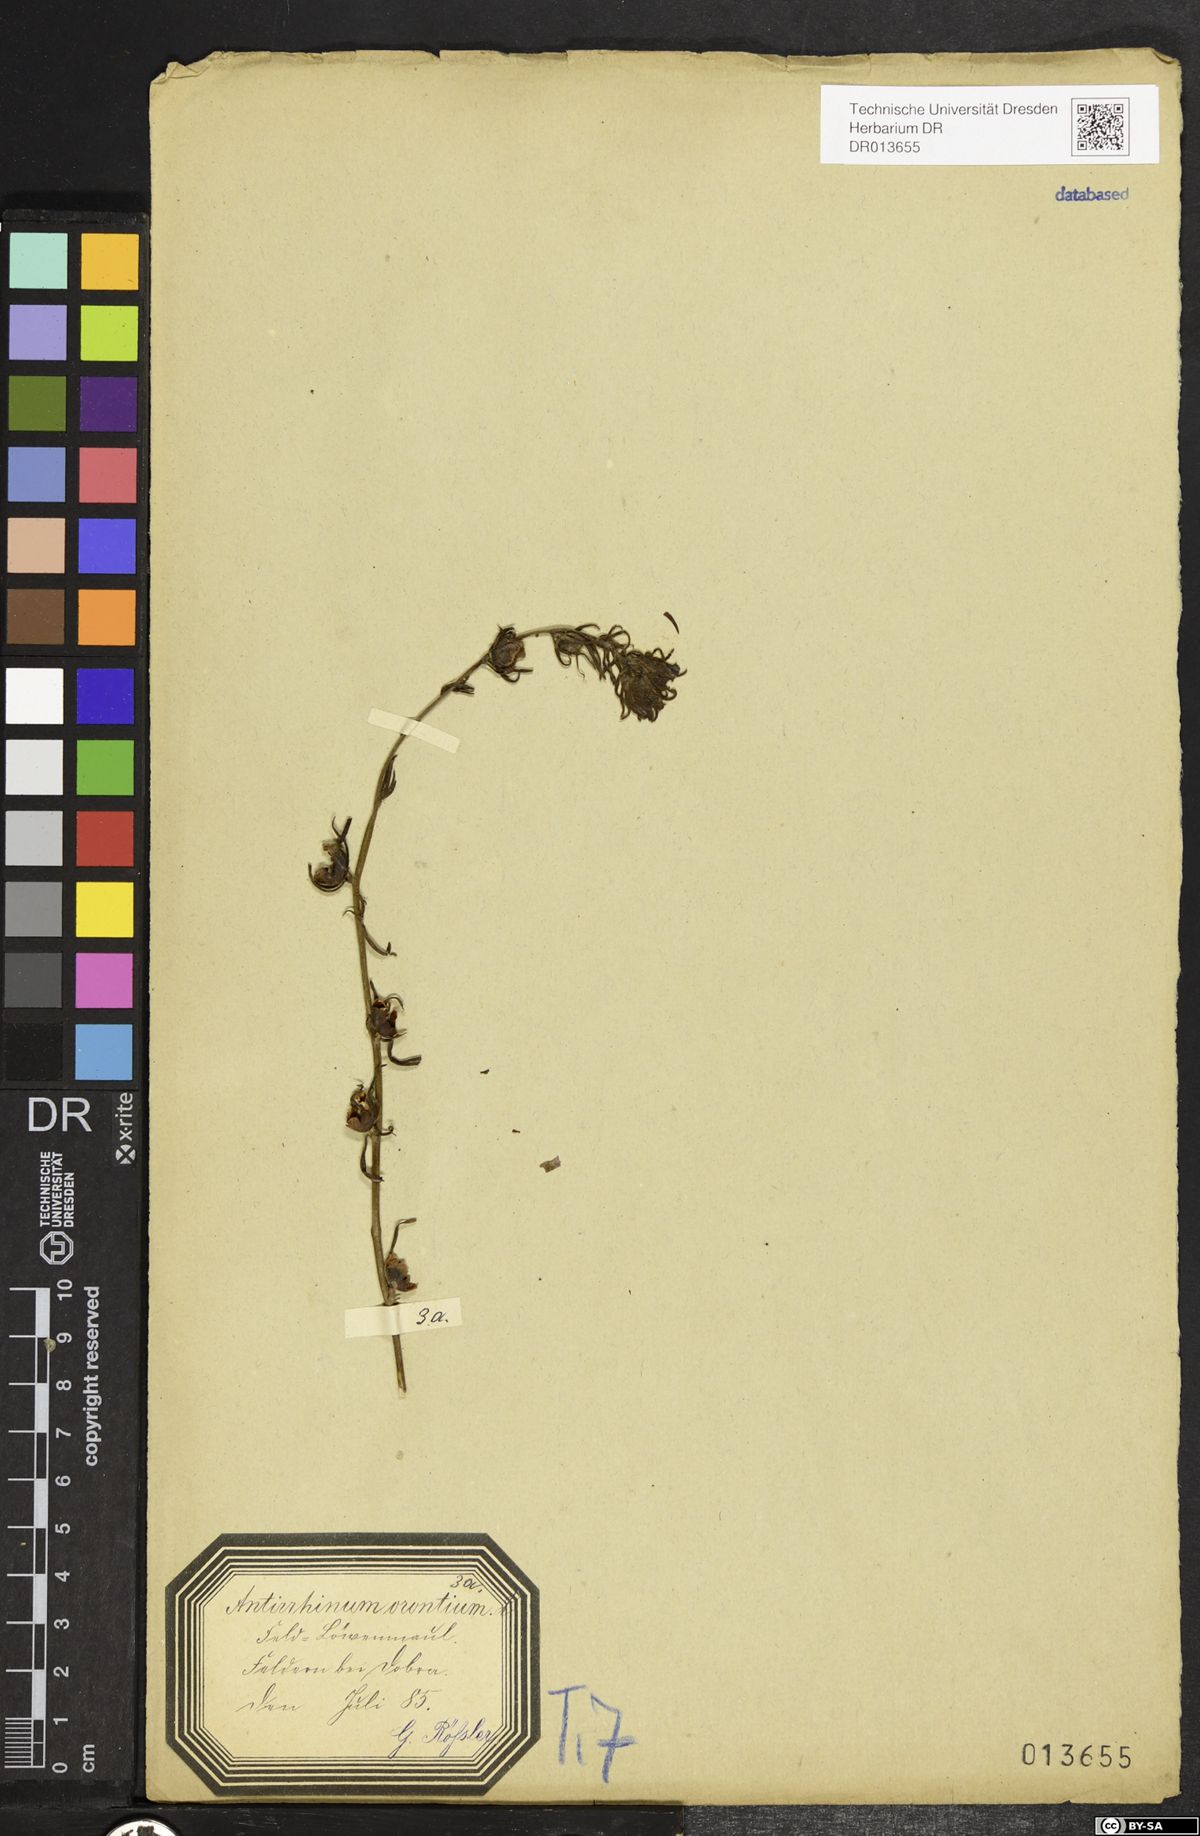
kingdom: Plantae
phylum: Tracheophyta
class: Magnoliopsida
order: Lamiales
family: Plantaginaceae
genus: Misopates
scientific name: Misopates orontium
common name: Weasel's-snout
